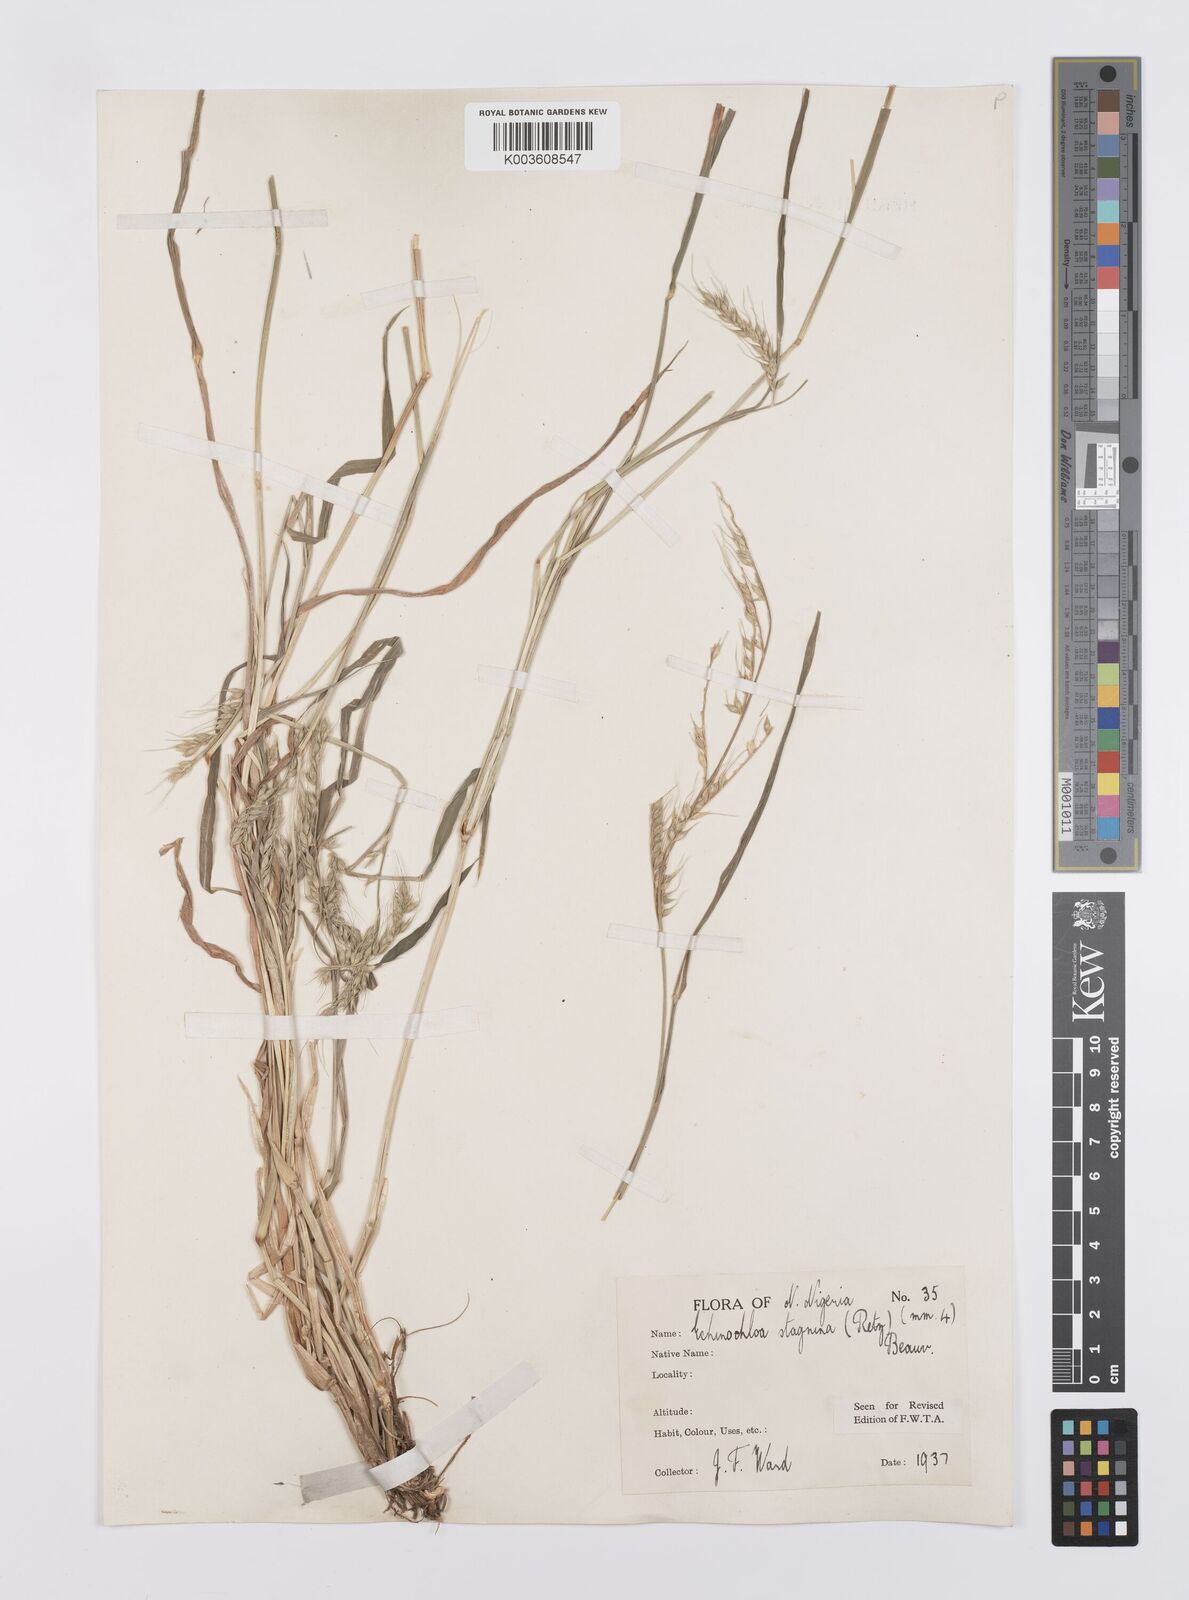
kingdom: Plantae
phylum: Tracheophyta
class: Liliopsida
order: Poales
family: Poaceae
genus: Echinochloa
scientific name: Echinochloa stagnina
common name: Burgu grass
